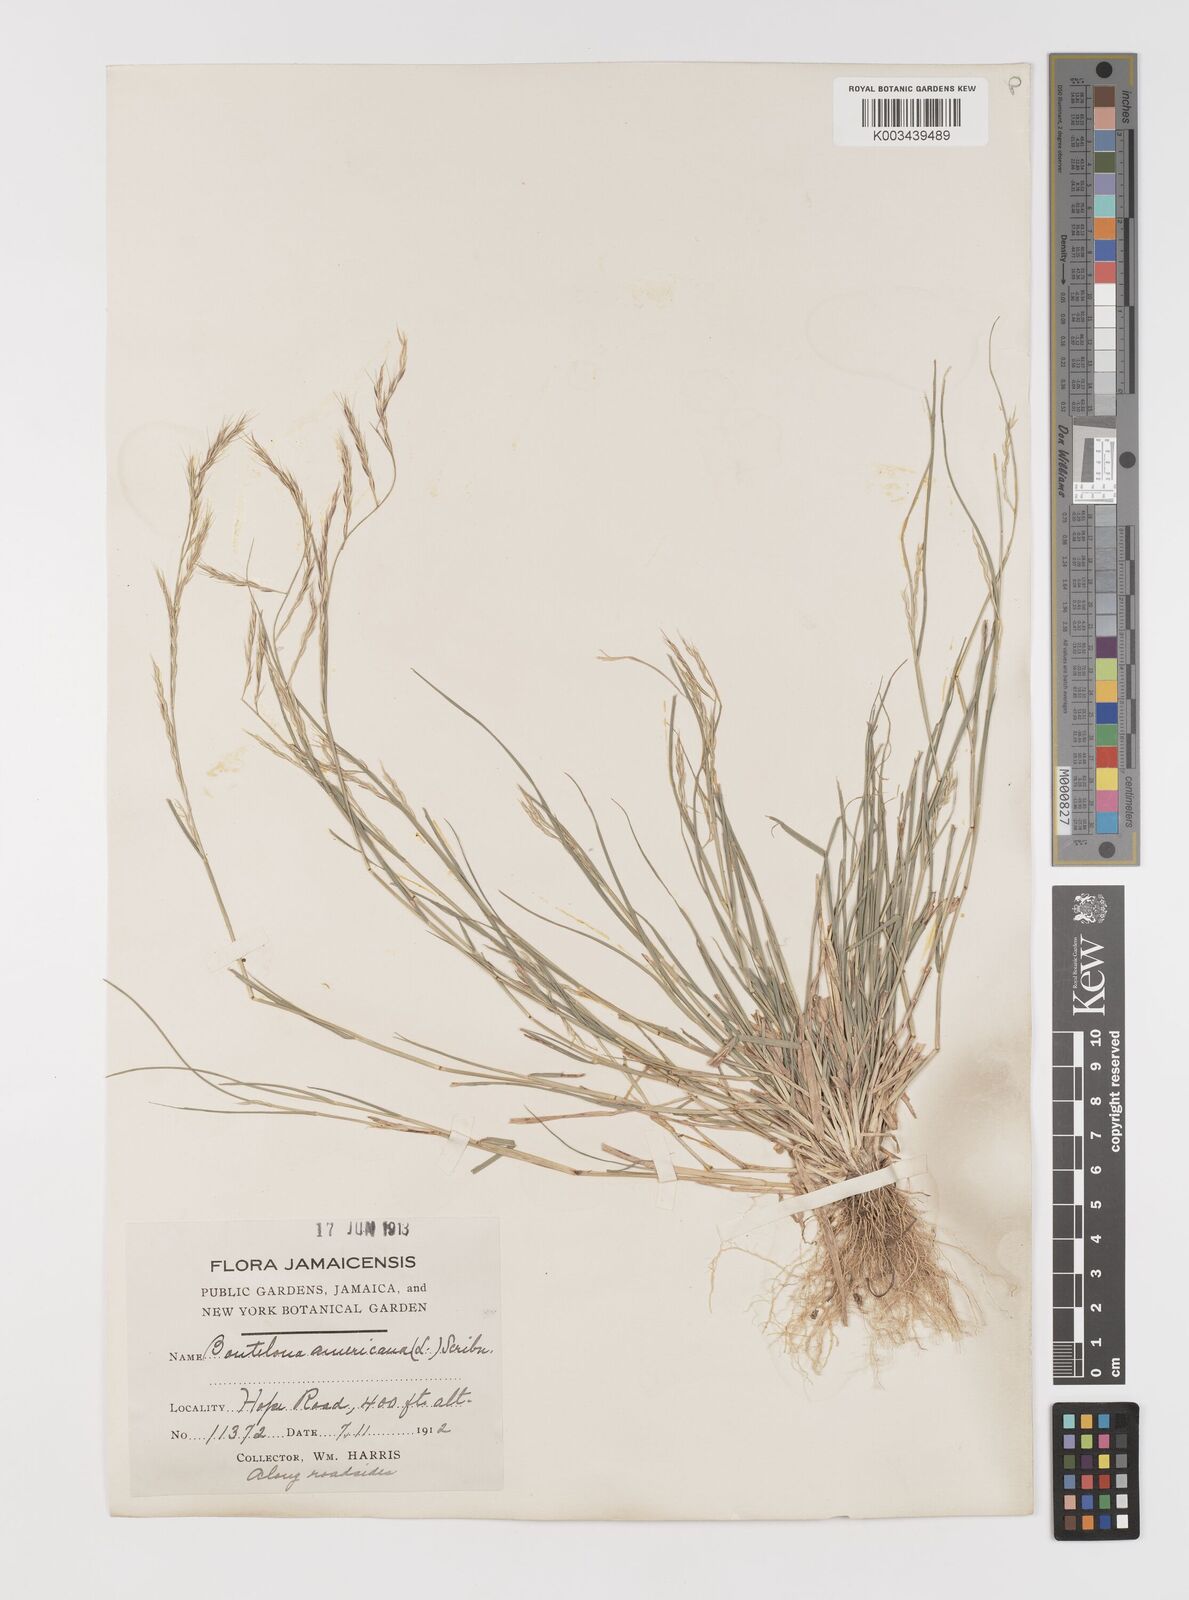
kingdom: Plantae
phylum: Tracheophyta
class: Liliopsida
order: Poales
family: Poaceae
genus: Bouteloua
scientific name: Bouteloua americana
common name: Mule grass
